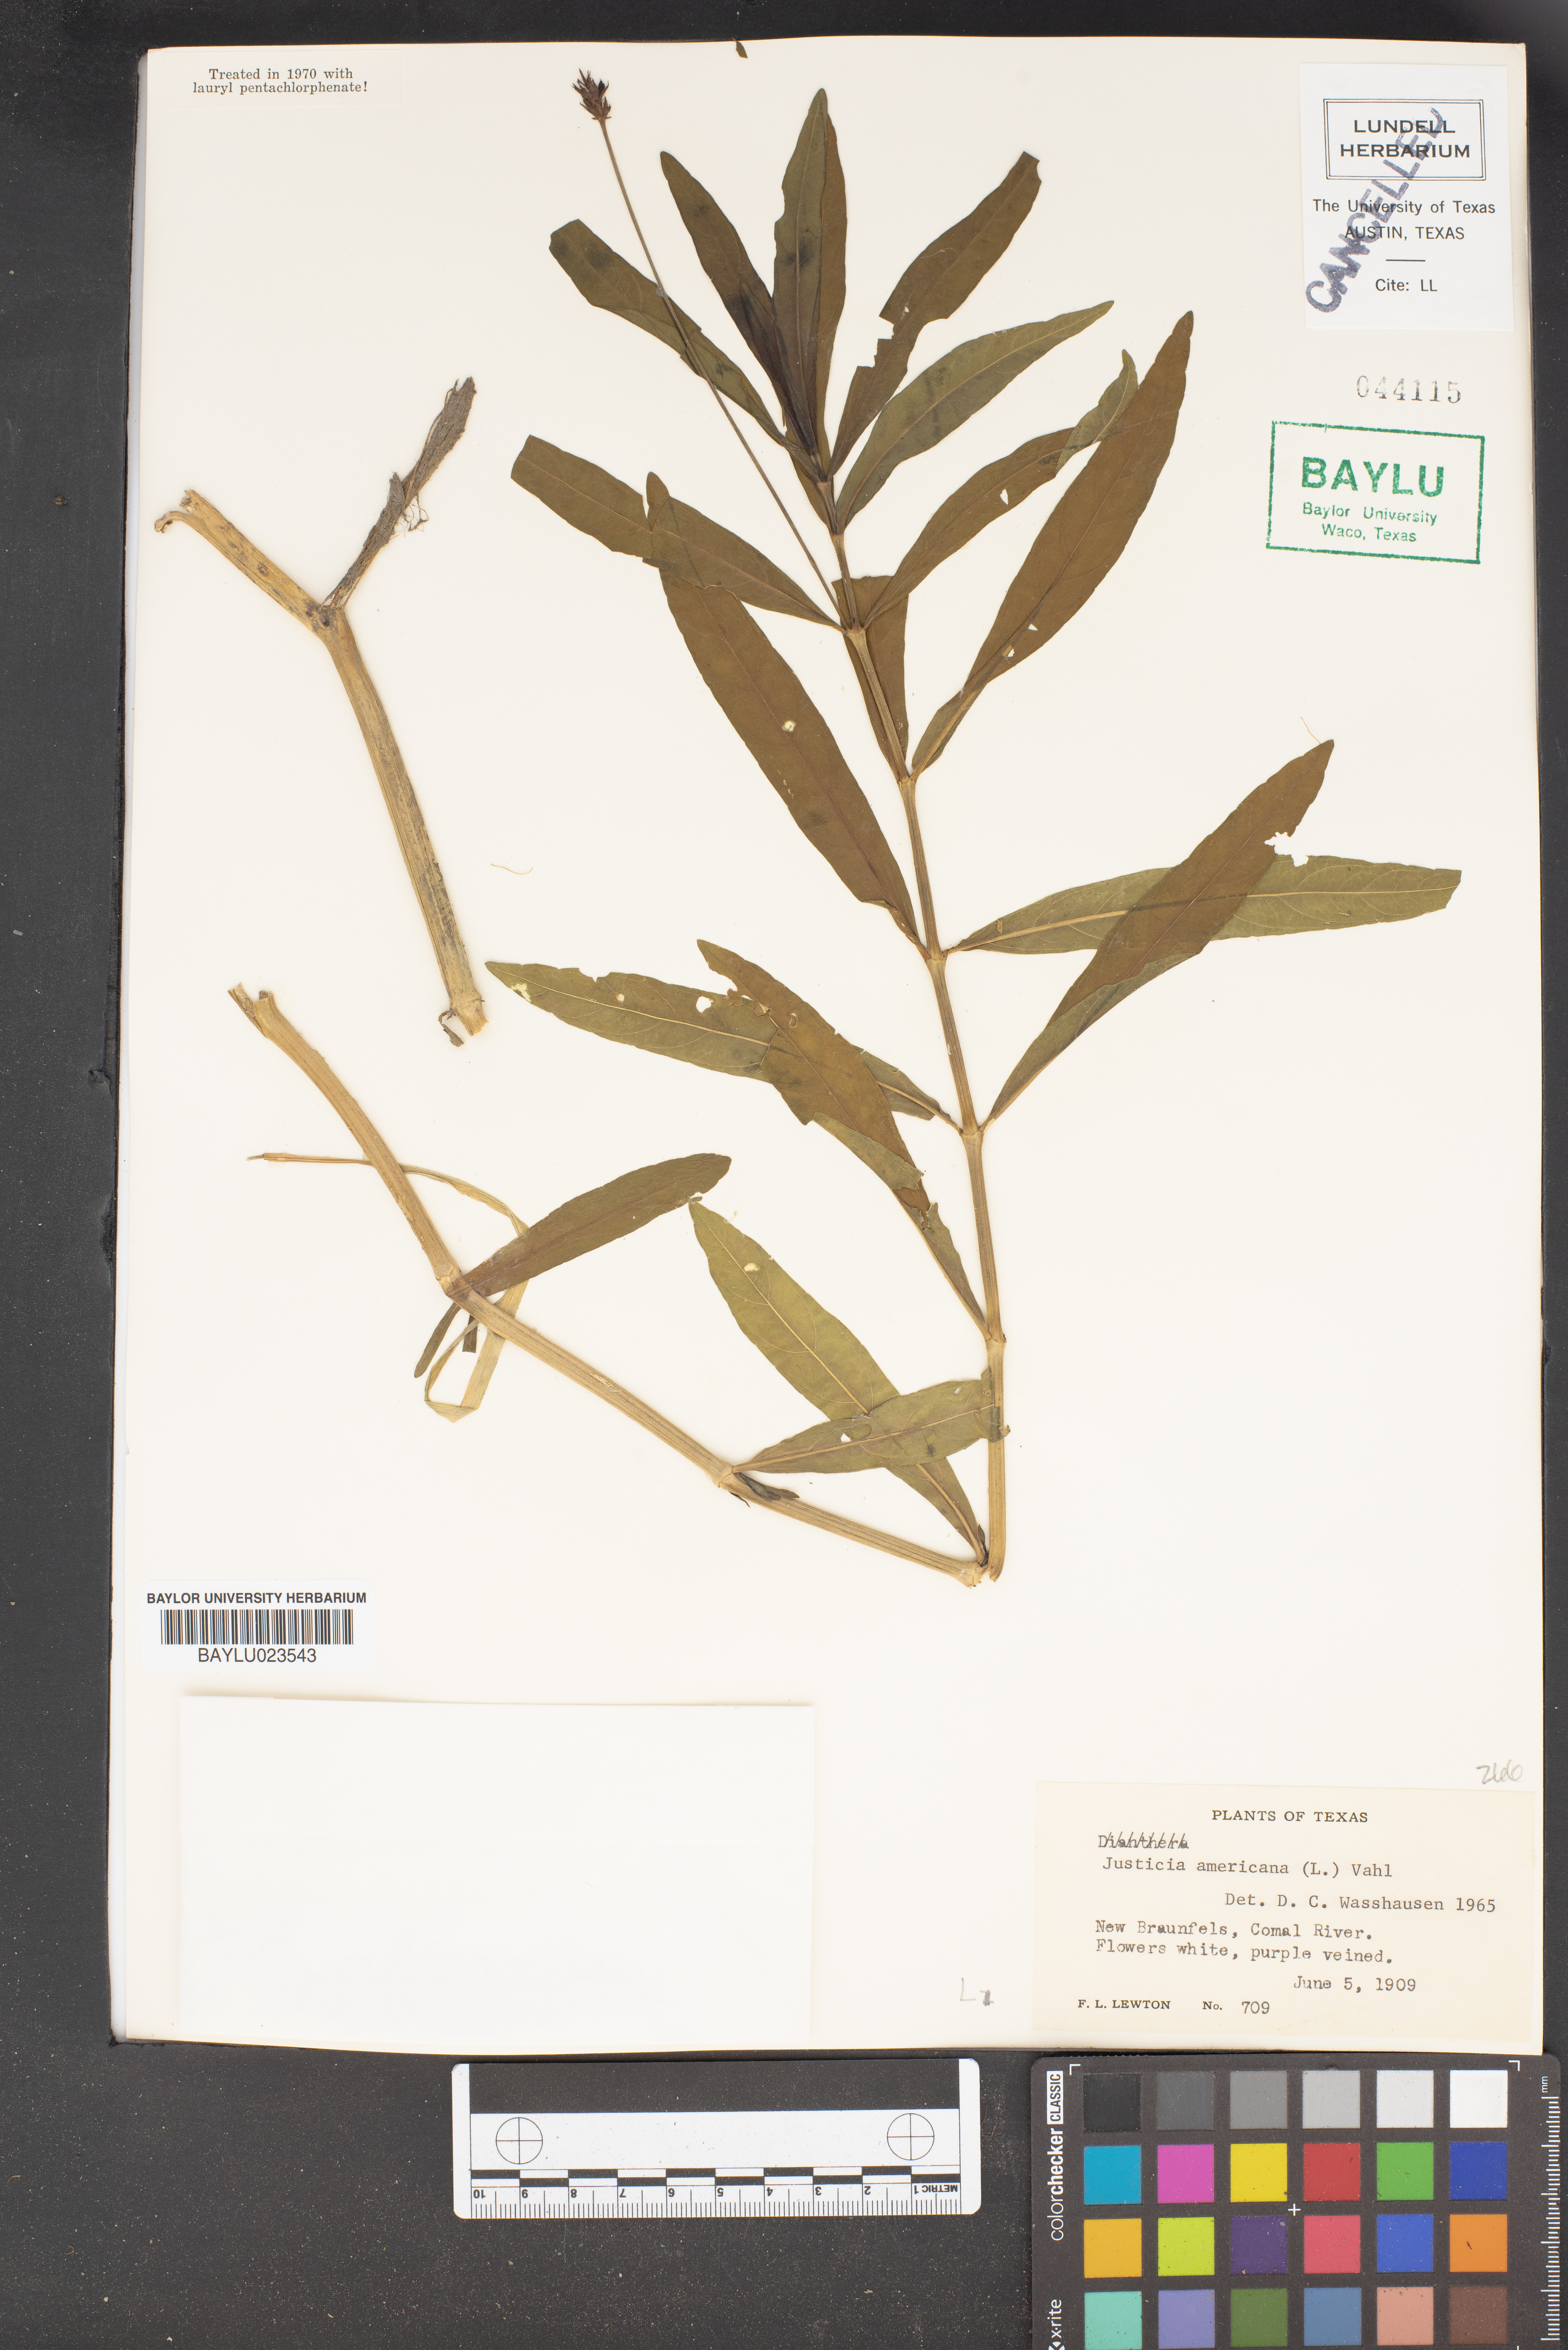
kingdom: Plantae
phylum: Tracheophyta
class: Magnoliopsida
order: Lamiales
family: Acanthaceae
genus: Dianthera
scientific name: Dianthera americana
